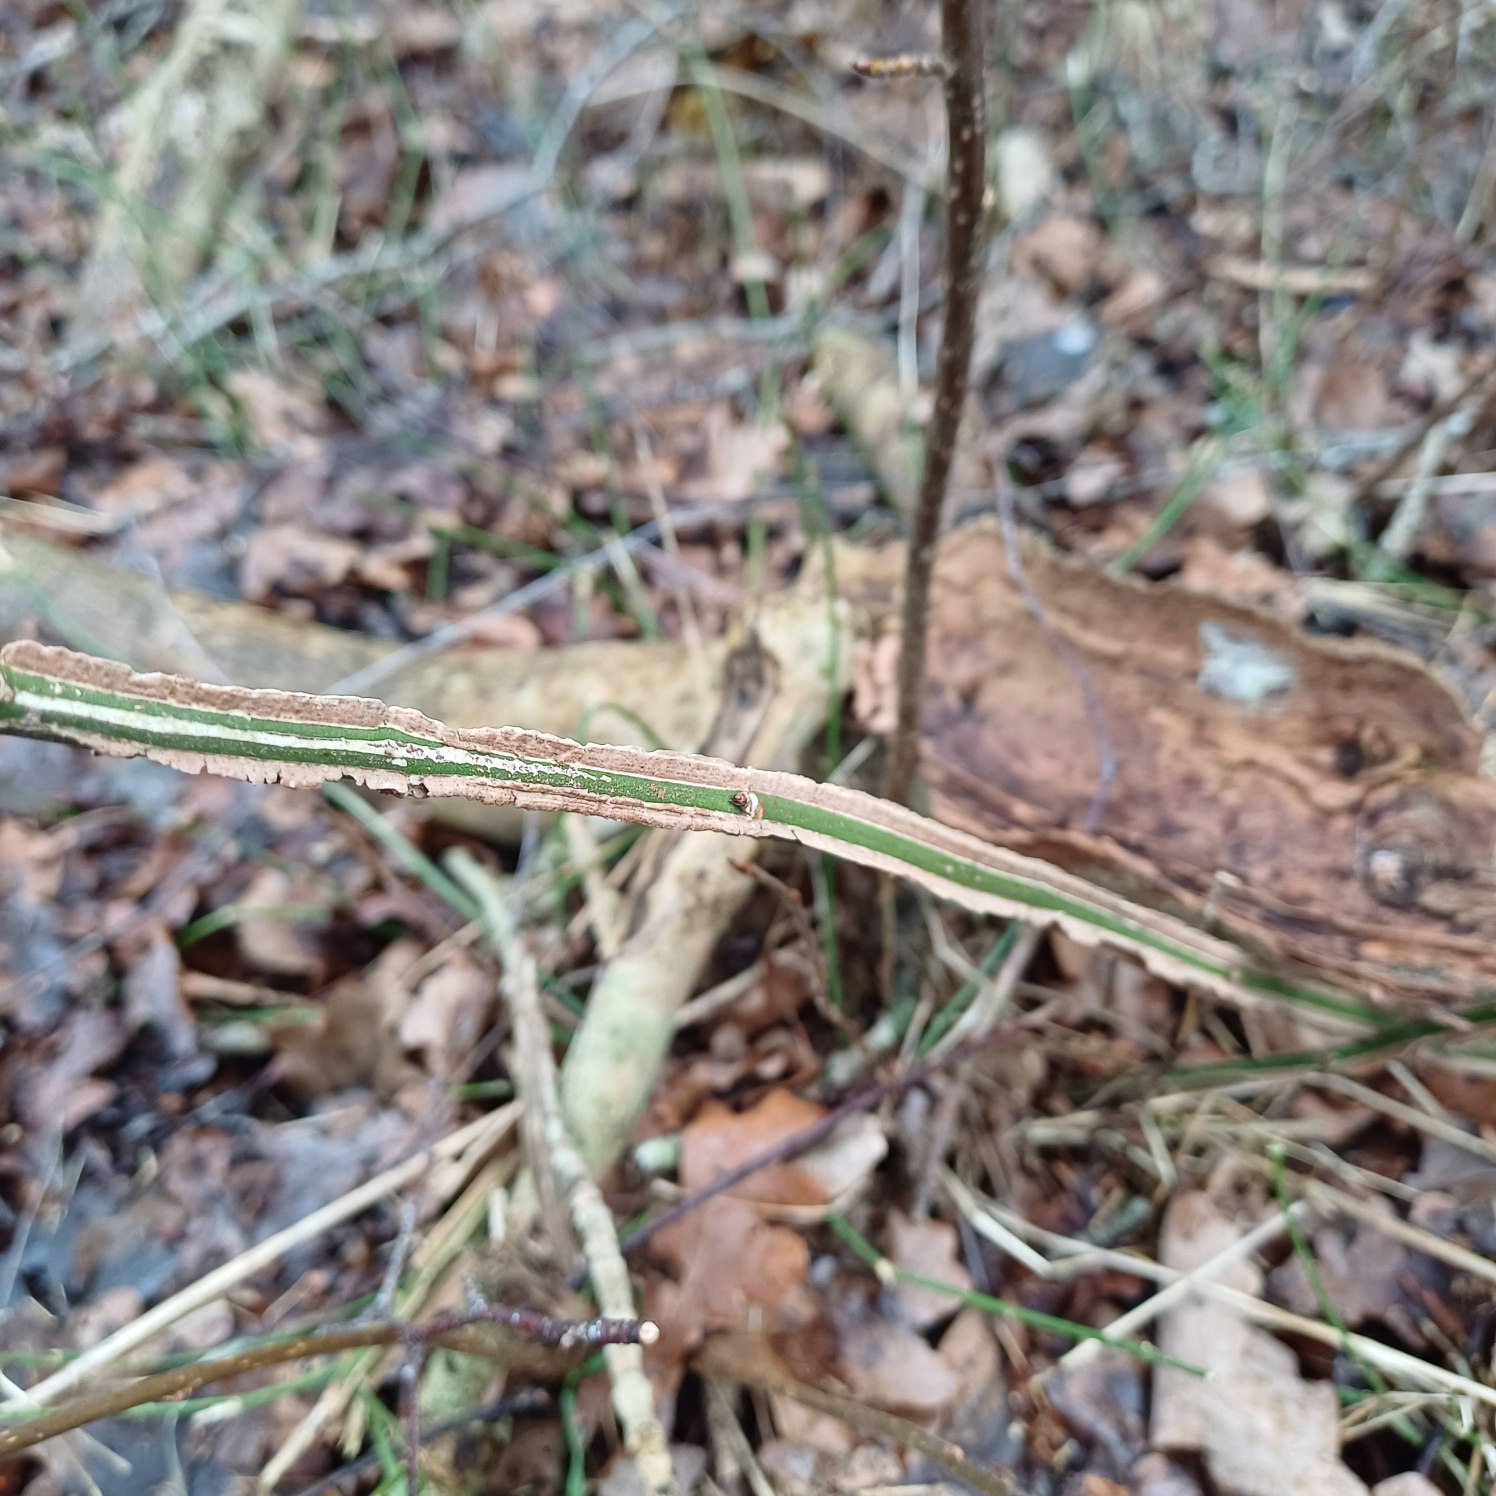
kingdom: Plantae
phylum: Tracheophyta
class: Magnoliopsida
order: Celastrales
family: Celastraceae
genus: Euonymus
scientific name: Euonymus europaeus
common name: Benved
